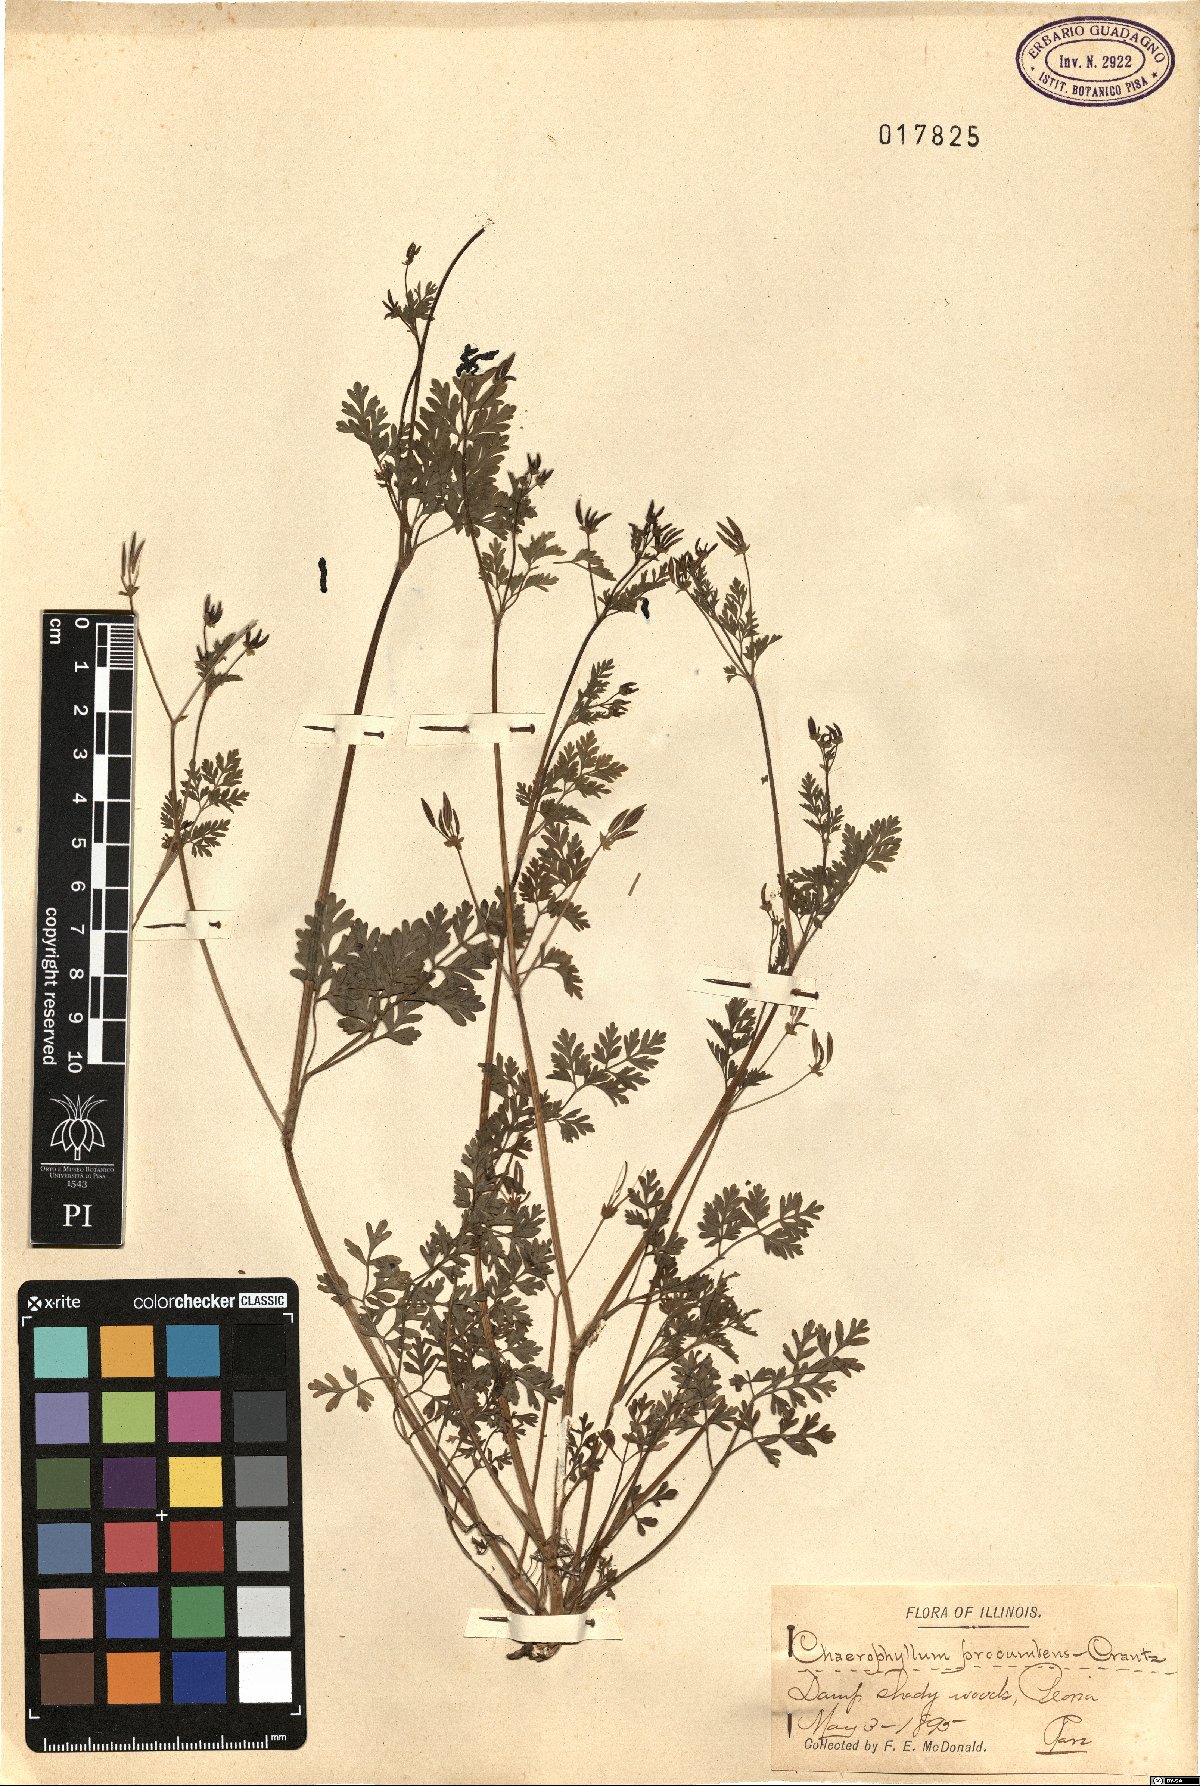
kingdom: Plantae
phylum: Tracheophyta
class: Magnoliopsida
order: Apiales
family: Apiaceae
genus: Chaerophyllum
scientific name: Chaerophyllum procumbens
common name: Spreading chervil
